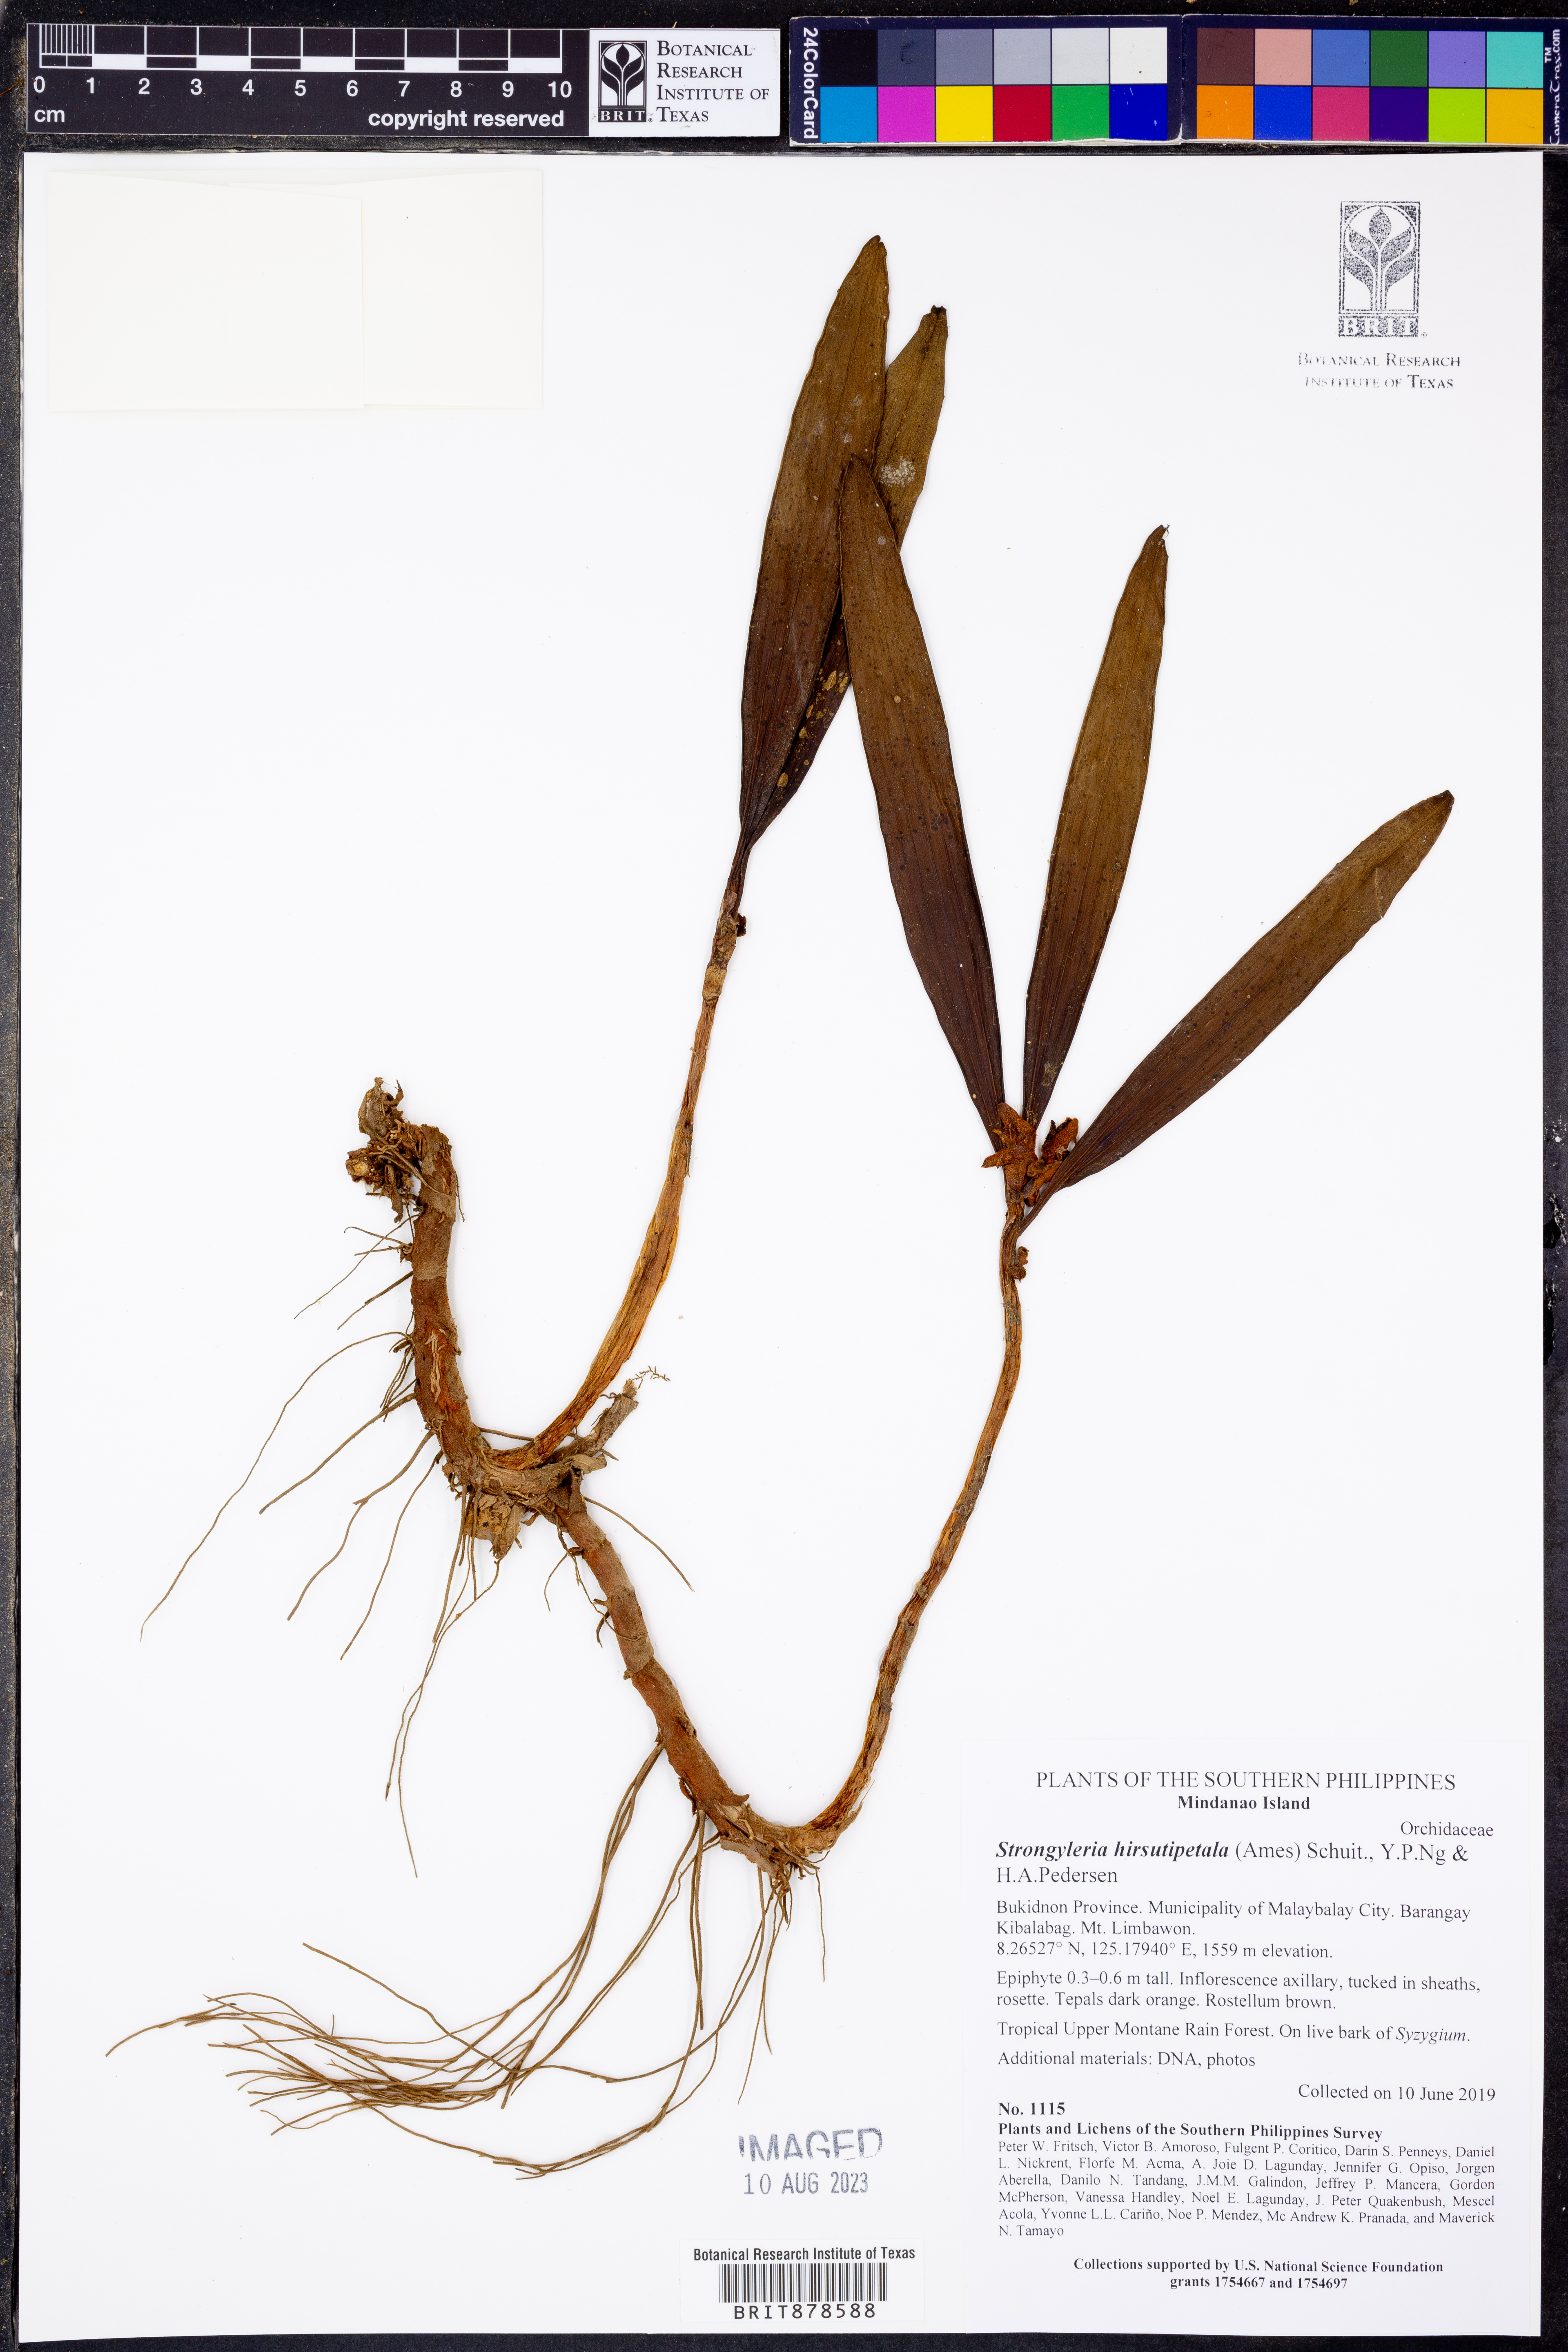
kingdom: Plantae
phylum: Tracheophyta
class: Liliopsida
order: Asparagales
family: Orchidaceae
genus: Strongyleria
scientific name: Strongyleria hirsutipetala
